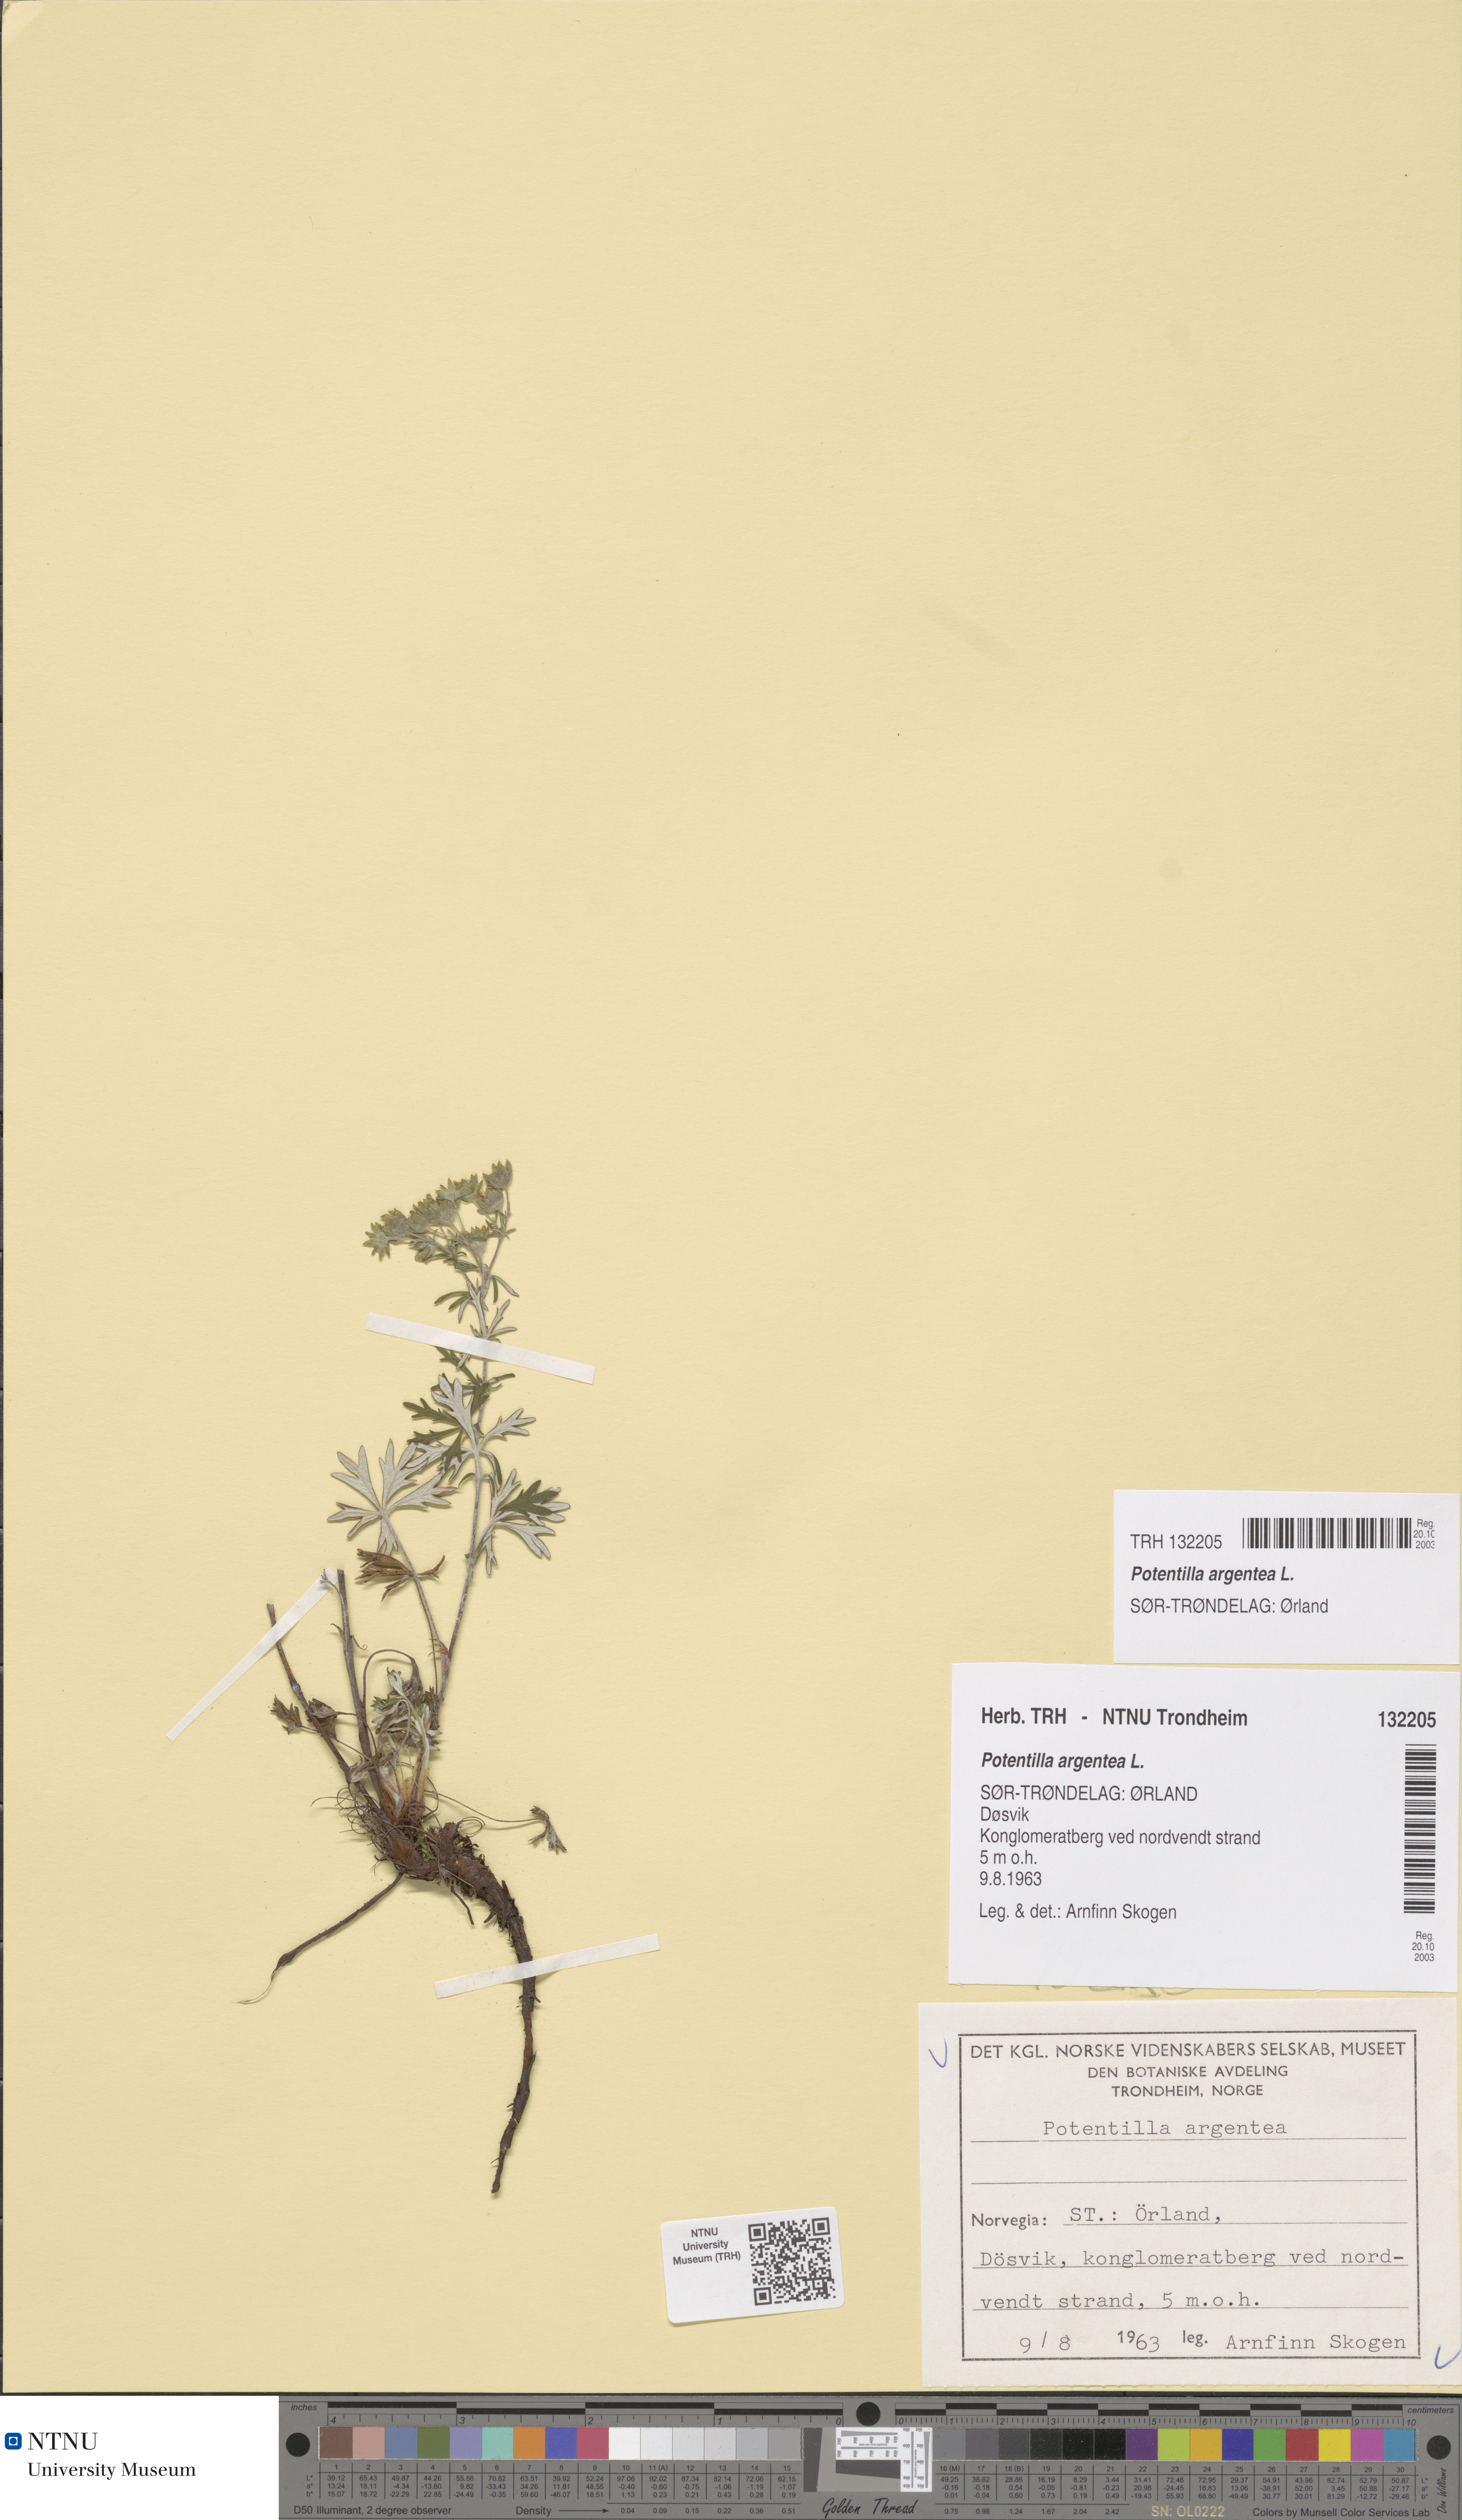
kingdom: Plantae
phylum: Tracheophyta
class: Magnoliopsida
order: Rosales
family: Rosaceae
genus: Potentilla
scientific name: Potentilla argentea
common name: Hoary cinquefoil
